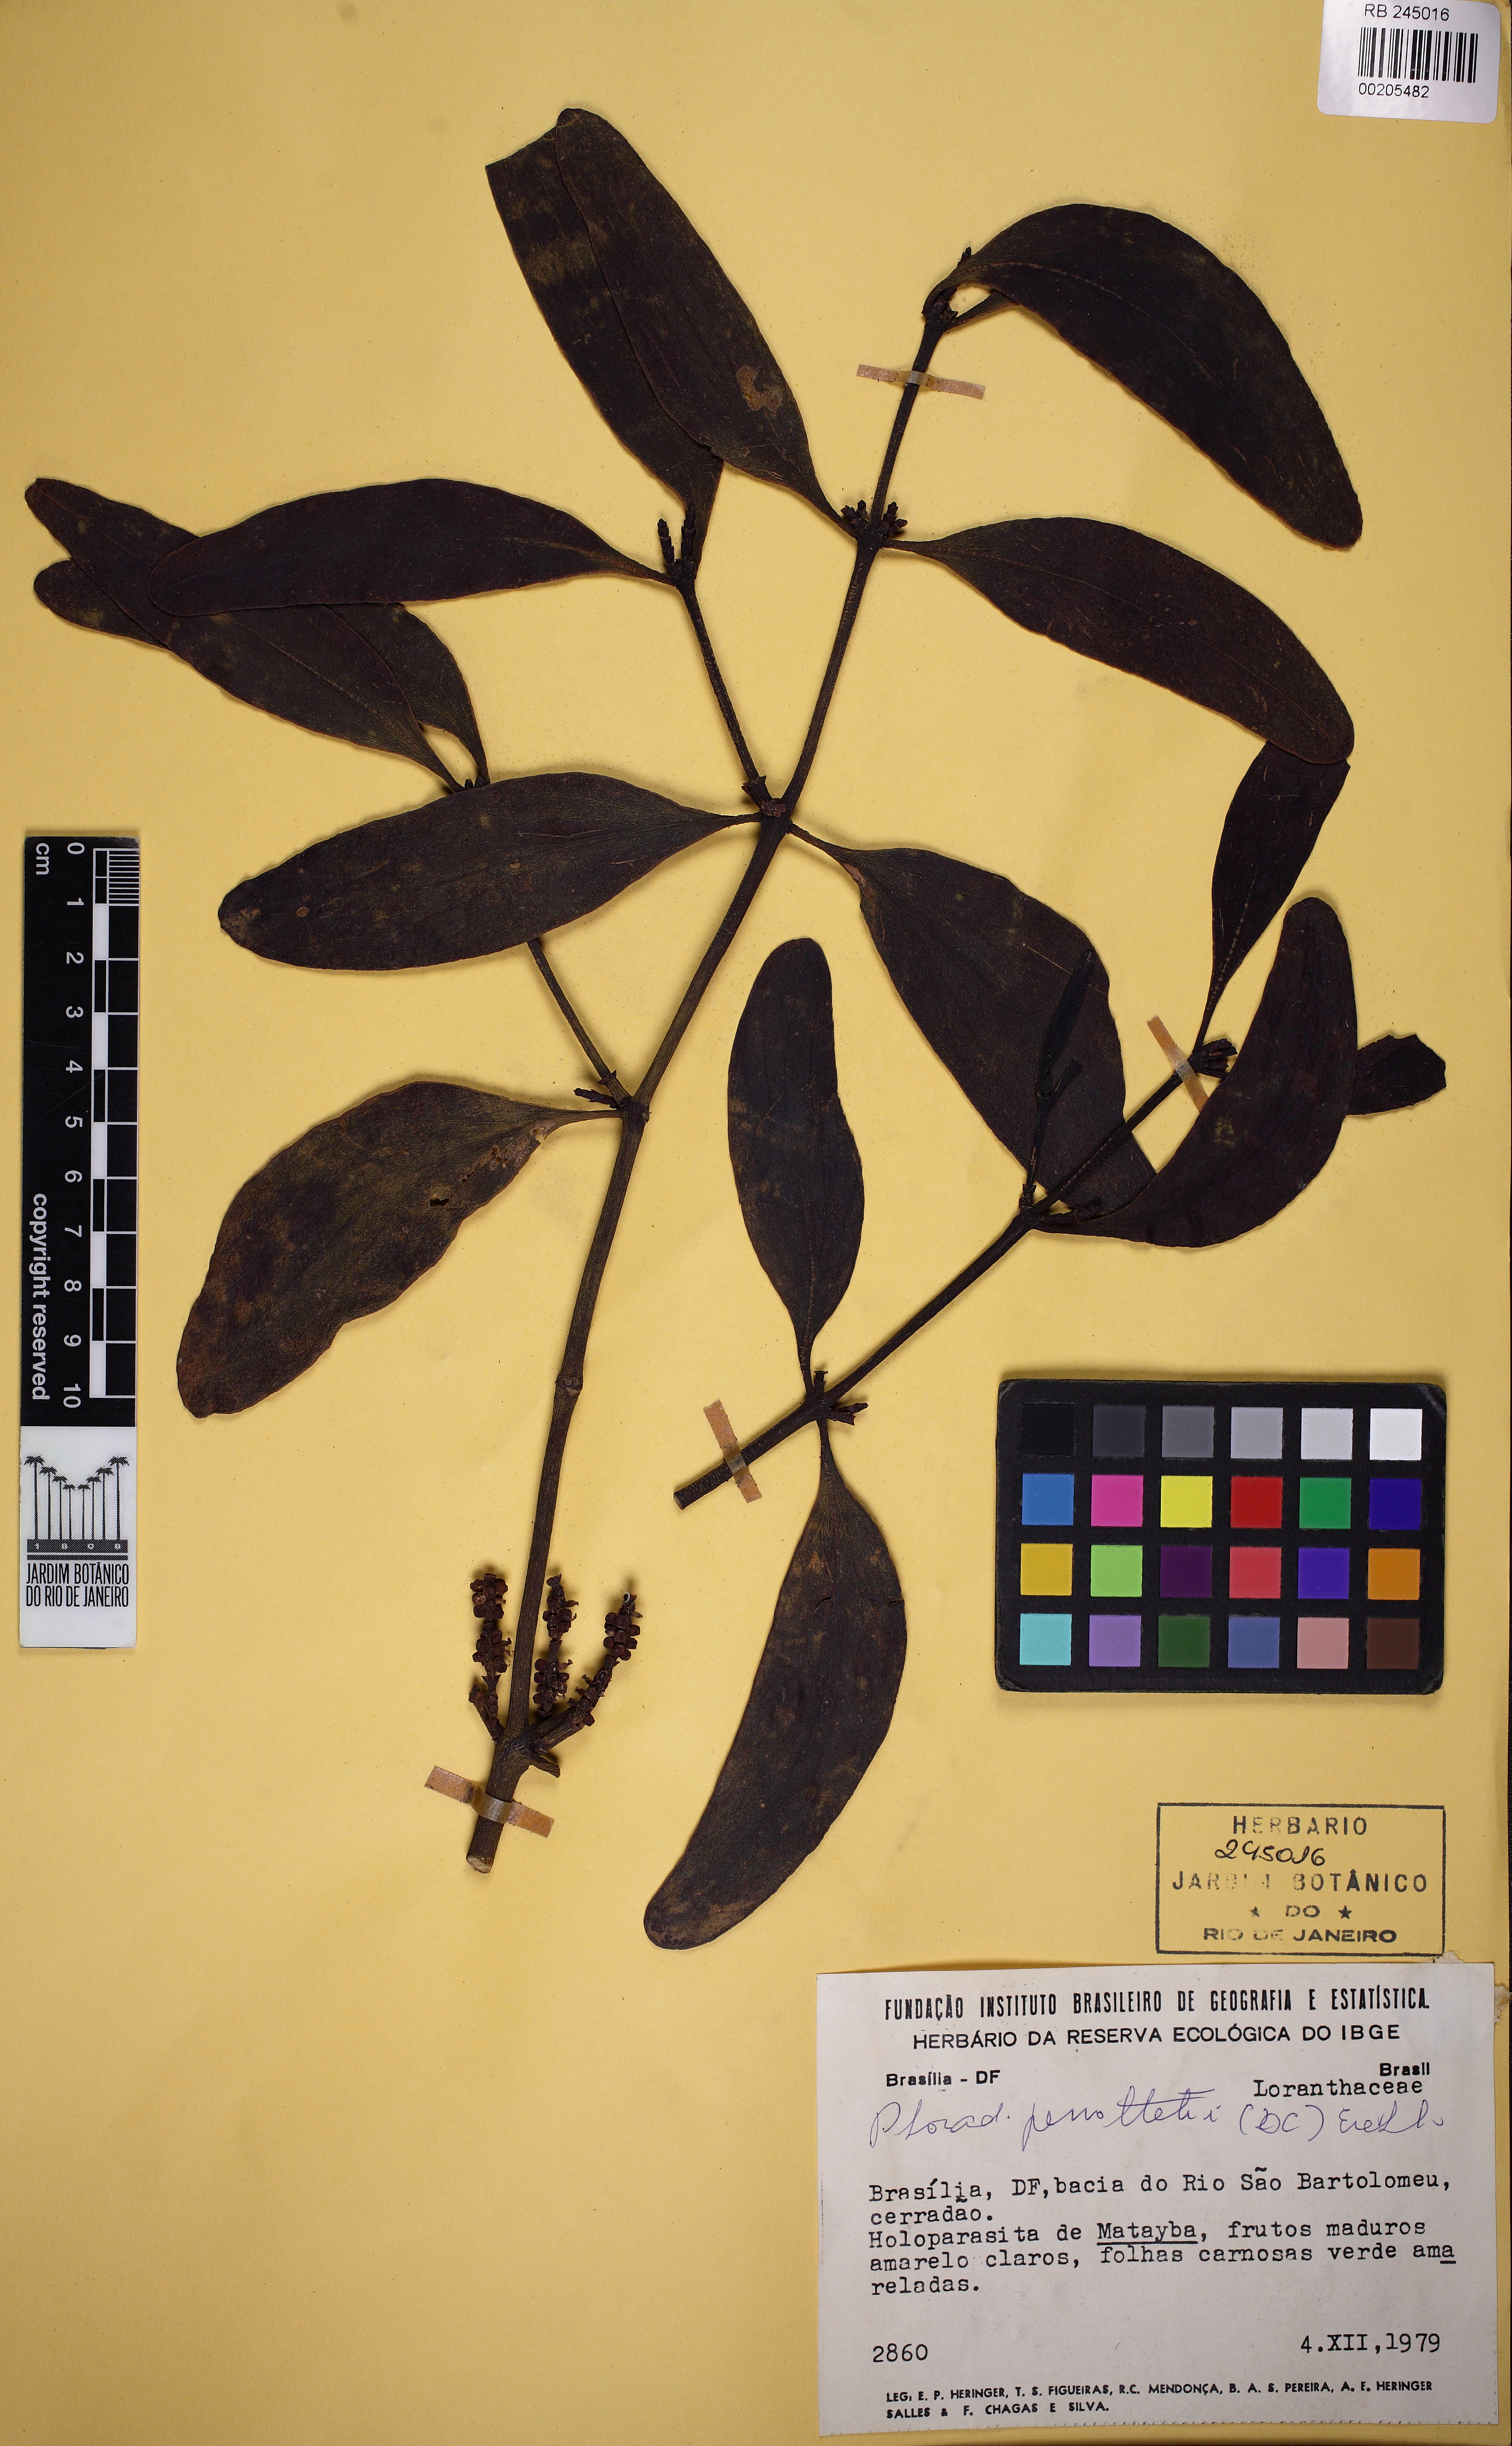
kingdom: Plantae
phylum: Tracheophyta
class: Magnoliopsida
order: Santalales
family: Viscaceae
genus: Phoradendron
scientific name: Phoradendron perrottetii
